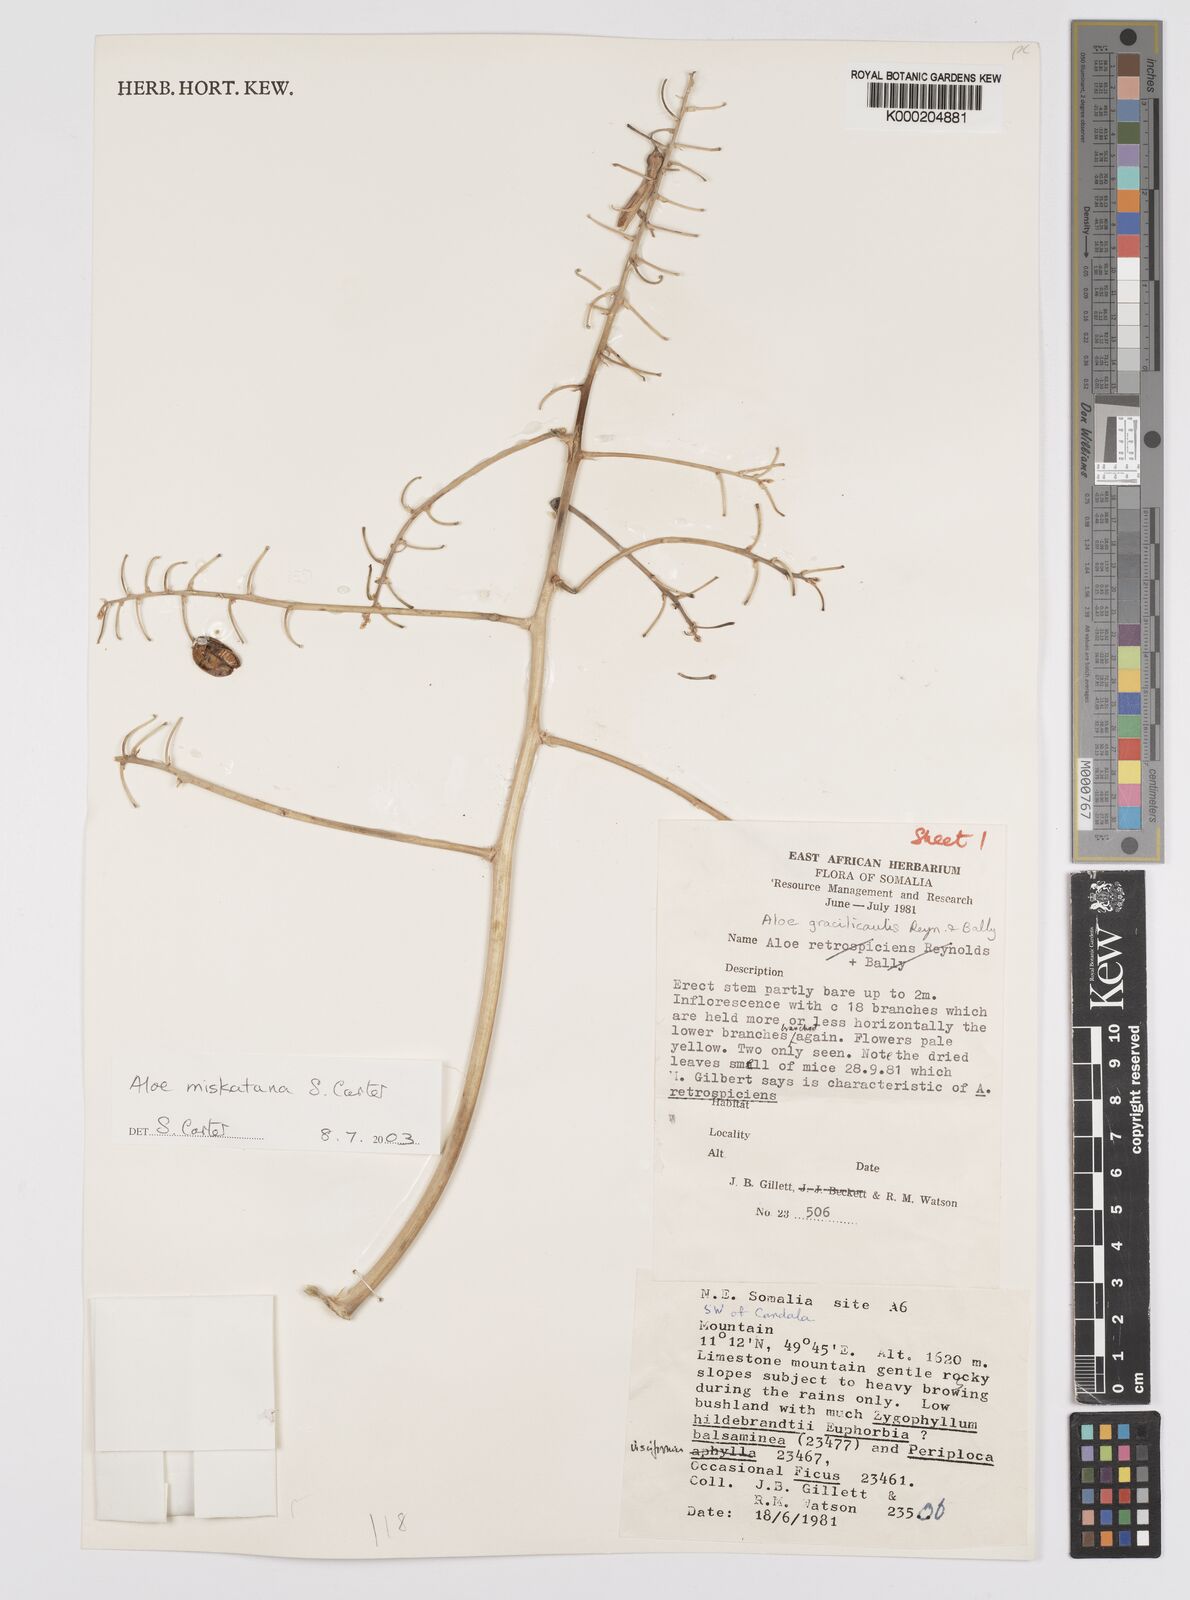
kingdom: Plantae
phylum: Tracheophyta
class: Liliopsida
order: Asparagales
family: Asphodelaceae
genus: Aloe
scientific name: Aloe miskatana
